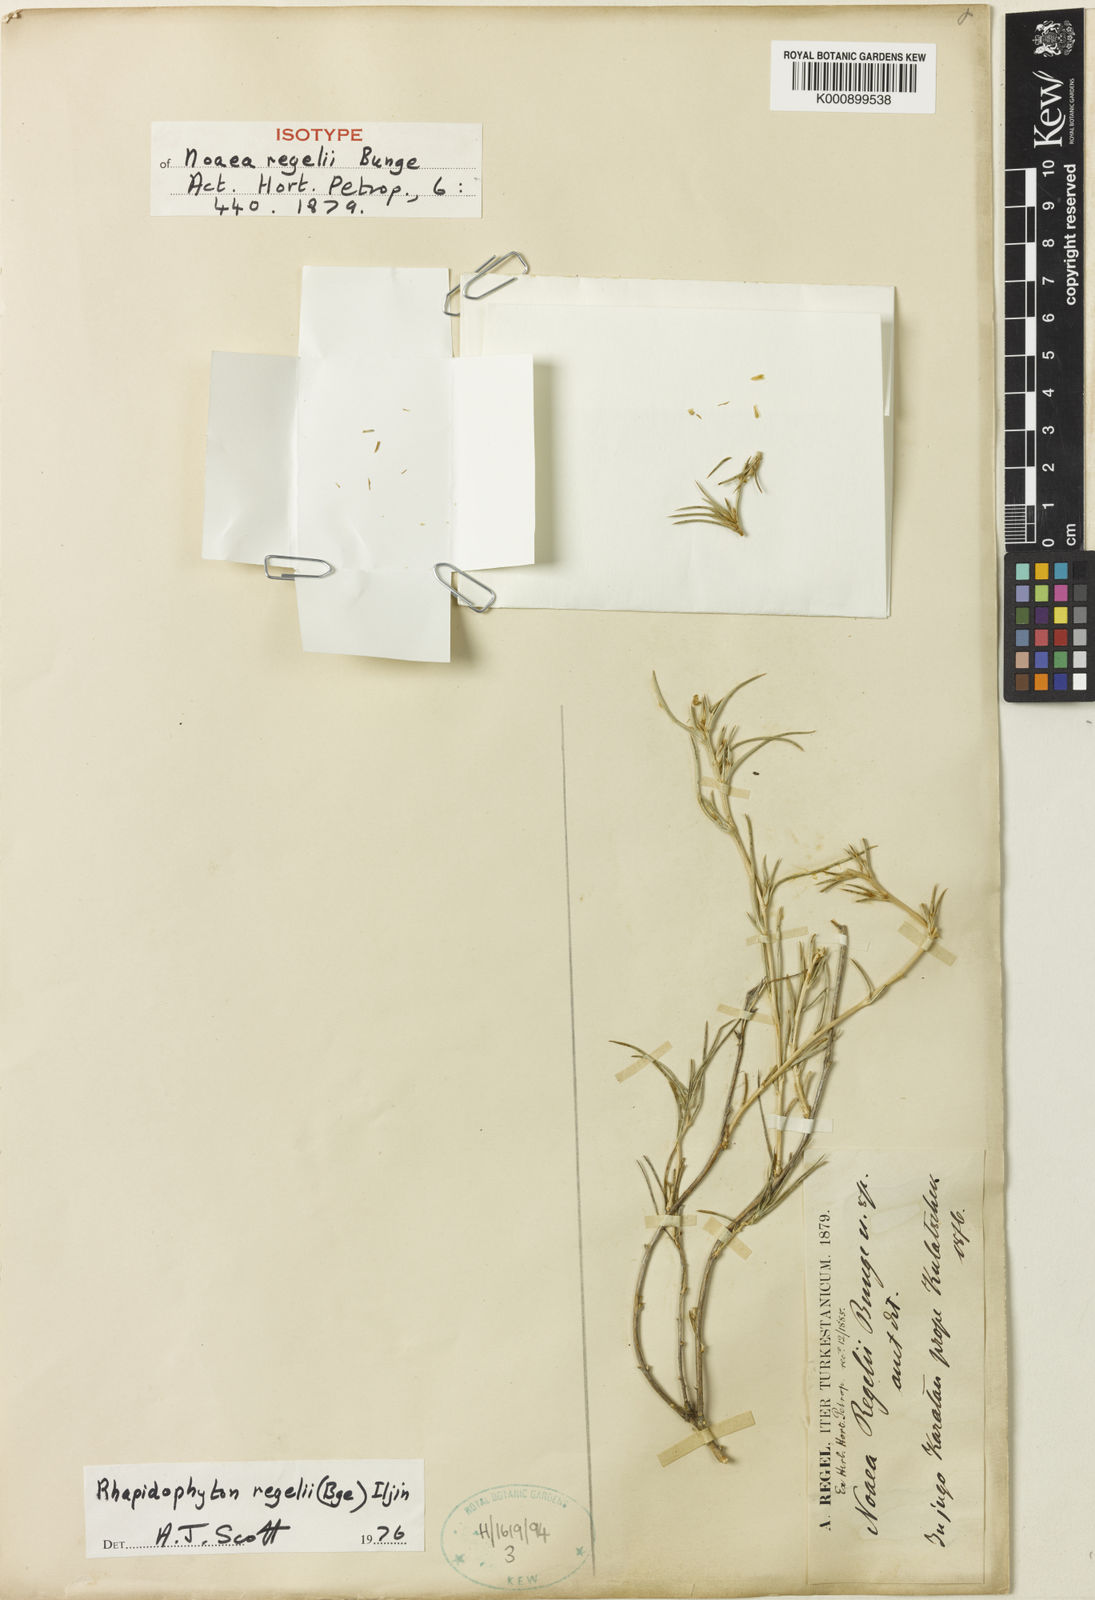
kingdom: Plantae
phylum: Tracheophyta
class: Magnoliopsida
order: Caryophyllales
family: Amaranthaceae
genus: Rhaphidophyton
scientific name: Rhaphidophyton regelii
